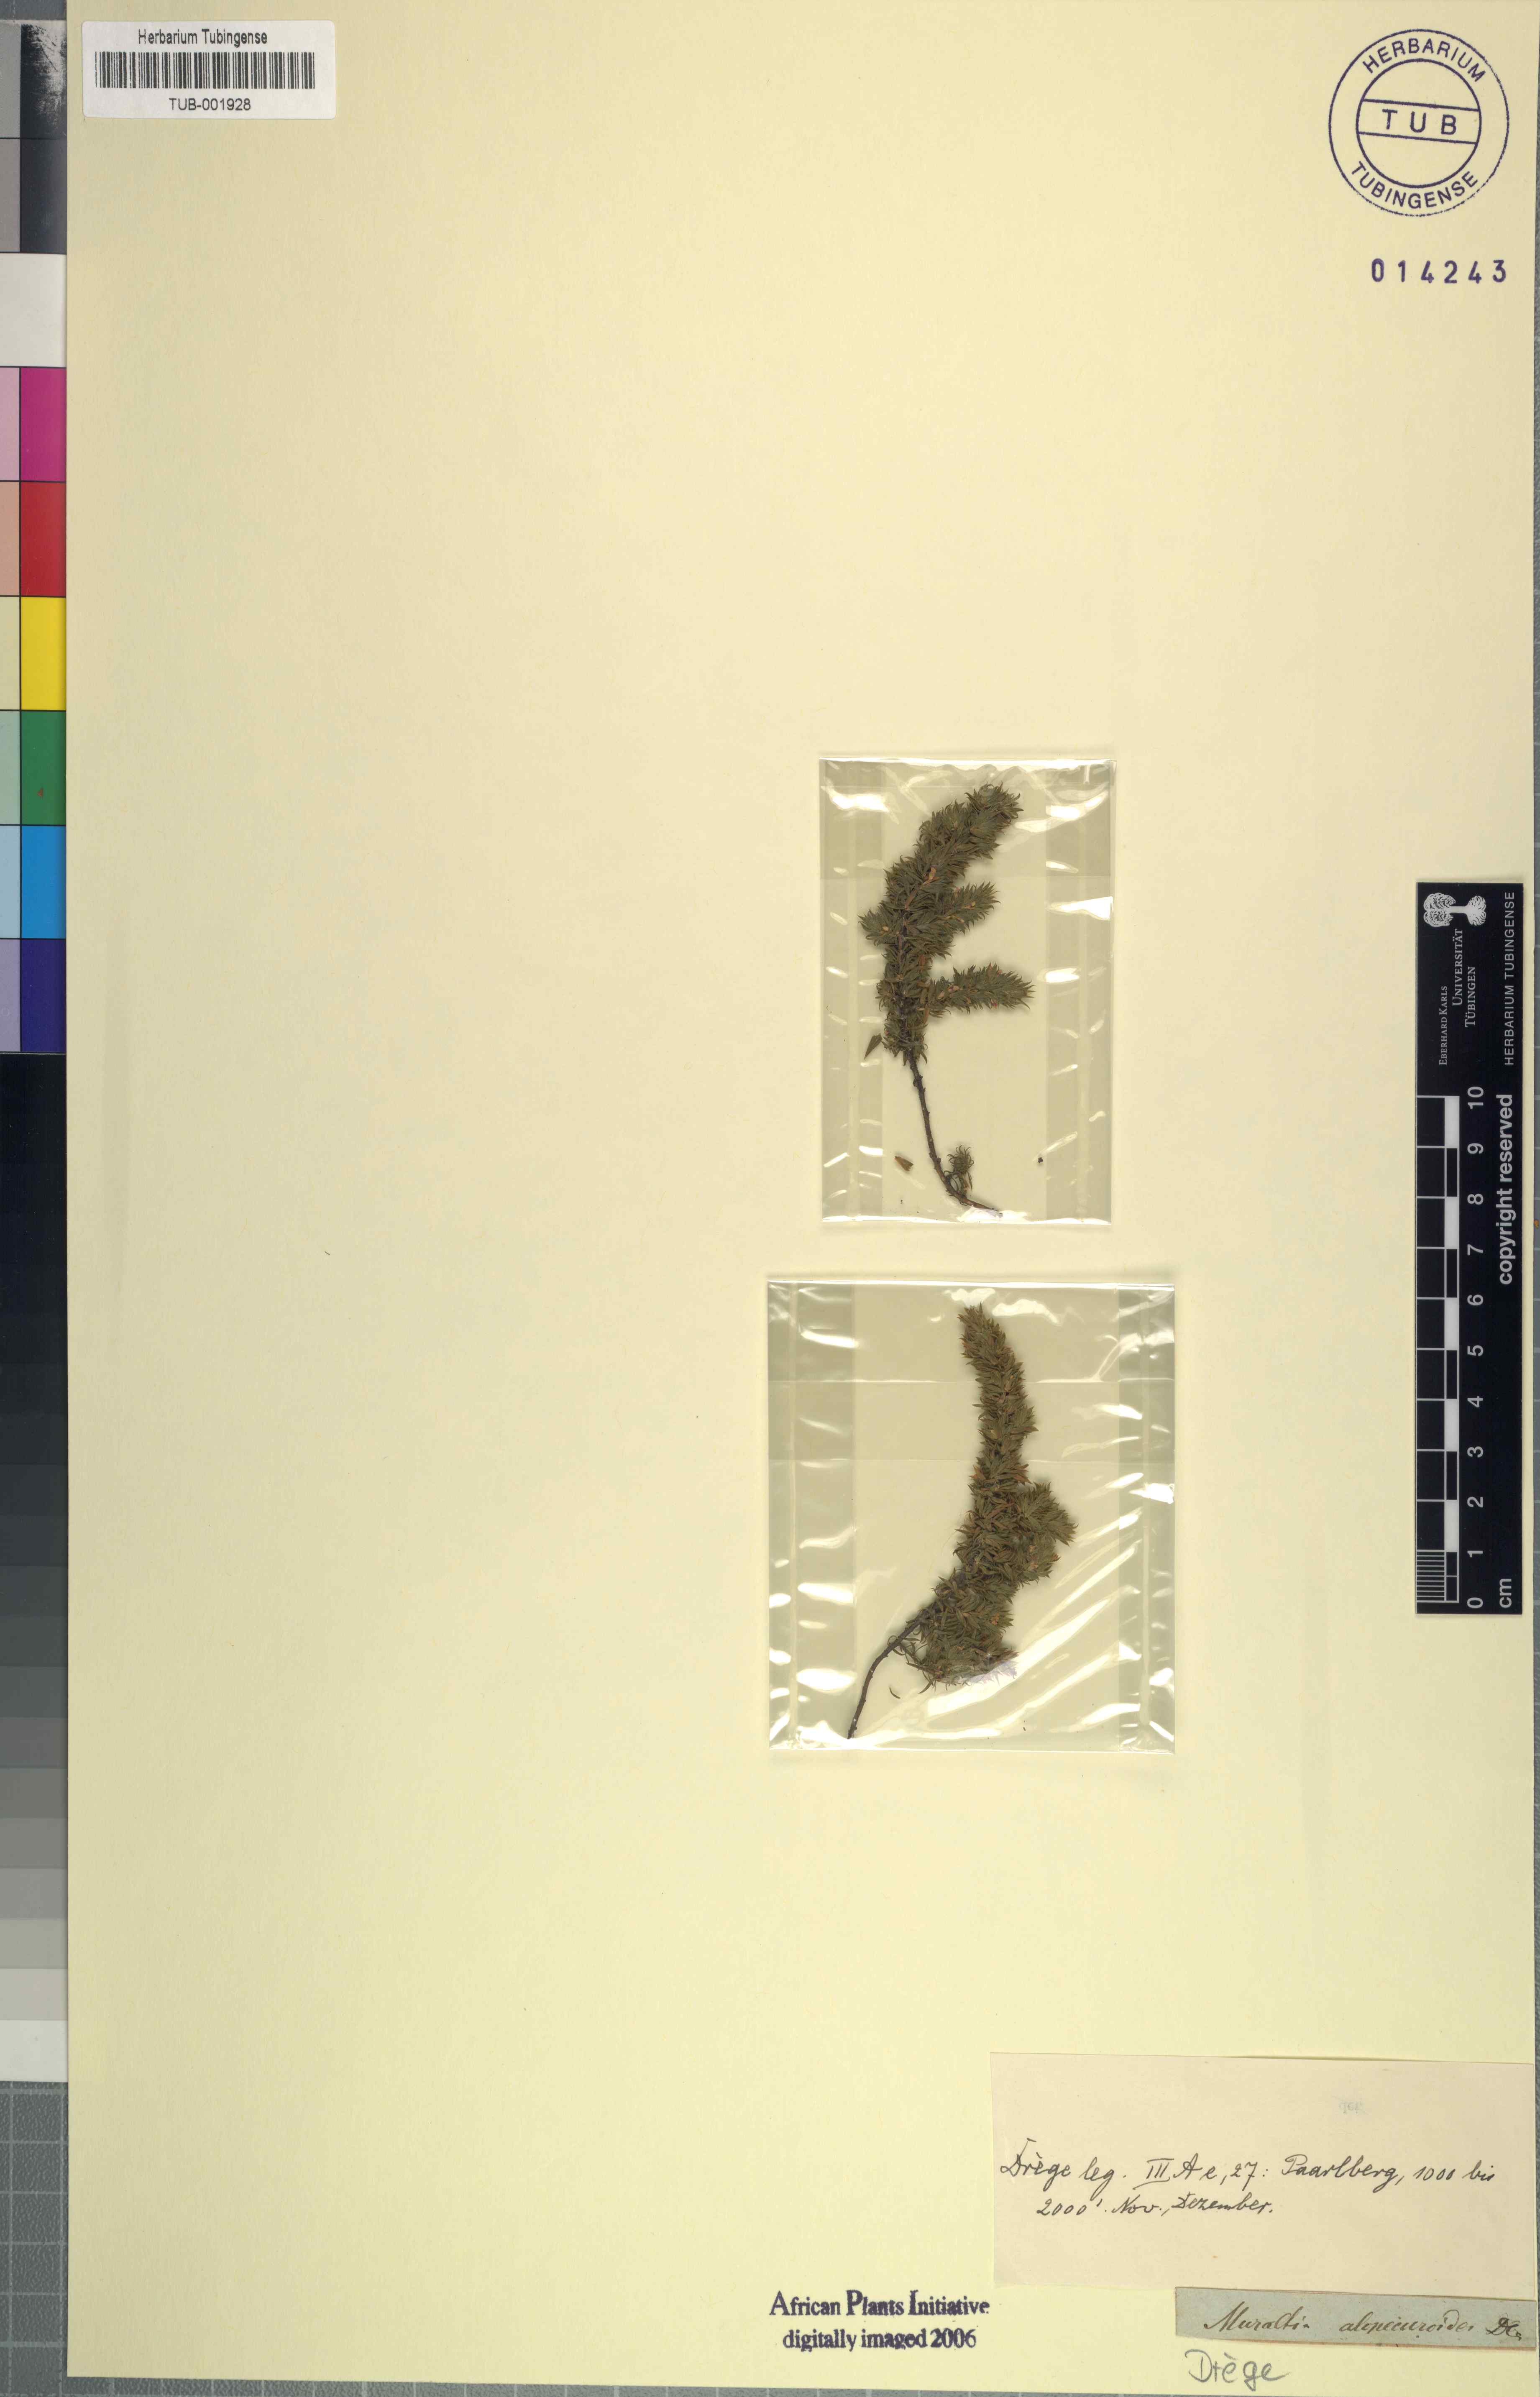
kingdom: Plantae
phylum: Tracheophyta
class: Magnoliopsida
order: Fabales
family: Polygalaceae
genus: Muraltia
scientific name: Muraltia alopecuroides
